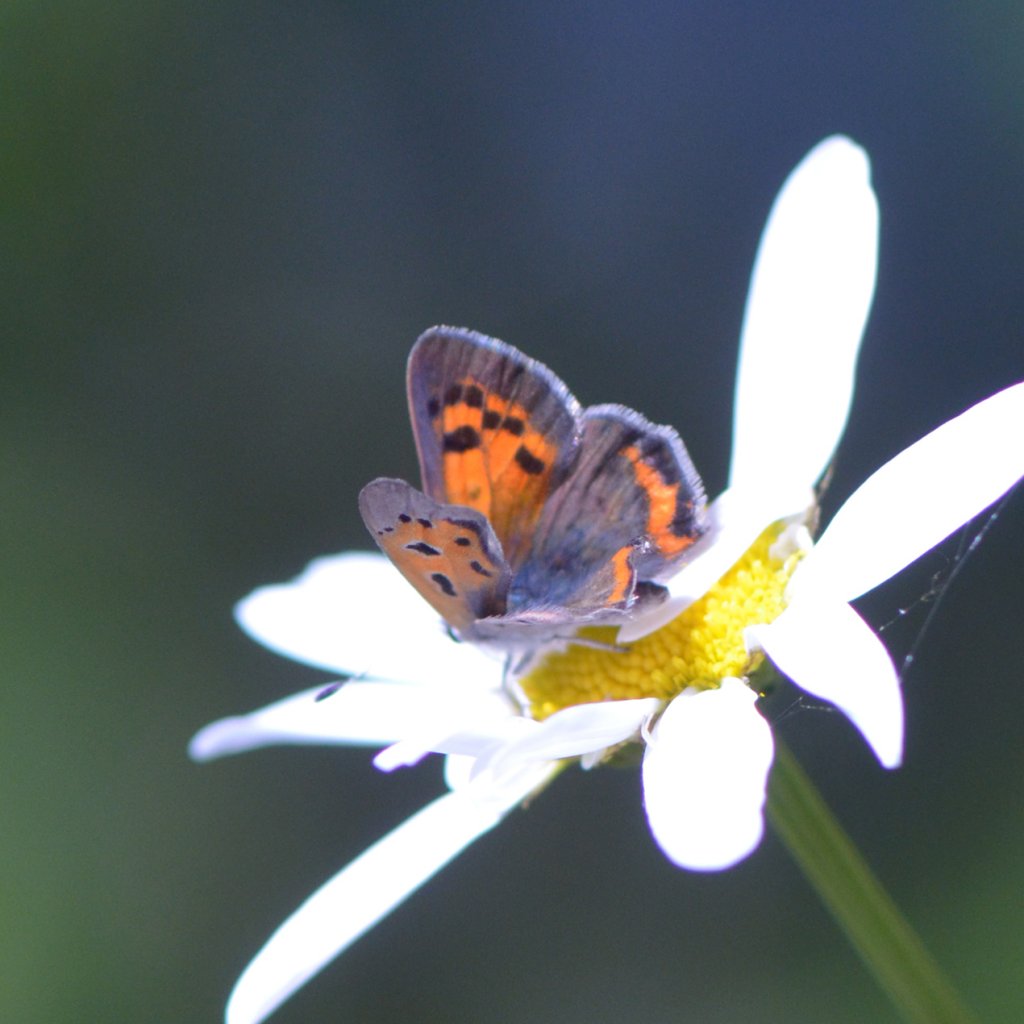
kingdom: Animalia
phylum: Arthropoda
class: Insecta
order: Lepidoptera
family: Lycaenidae
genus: Lycaena
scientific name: Lycaena phlaeas
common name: American Copper
